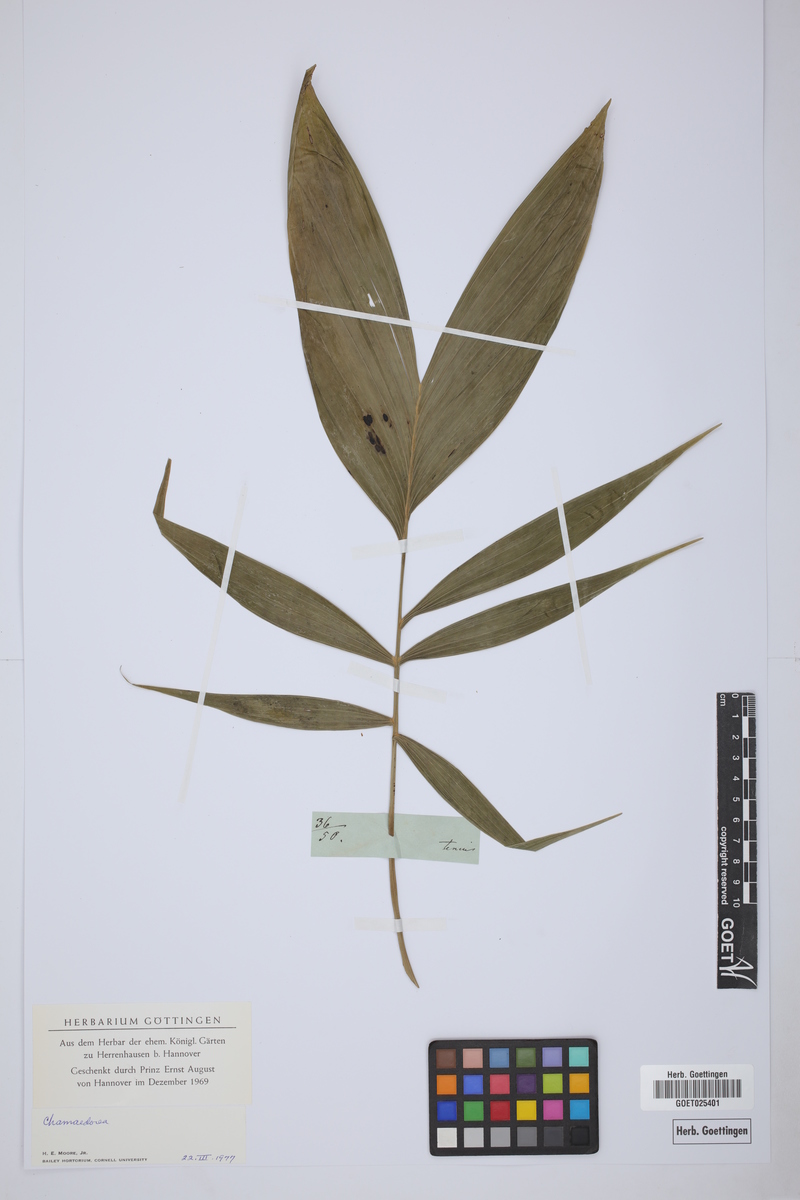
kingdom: Plantae
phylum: Tracheophyta
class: Liliopsida
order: Arecales
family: Arecaceae
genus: Chamaedorea
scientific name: Chamaedorea
